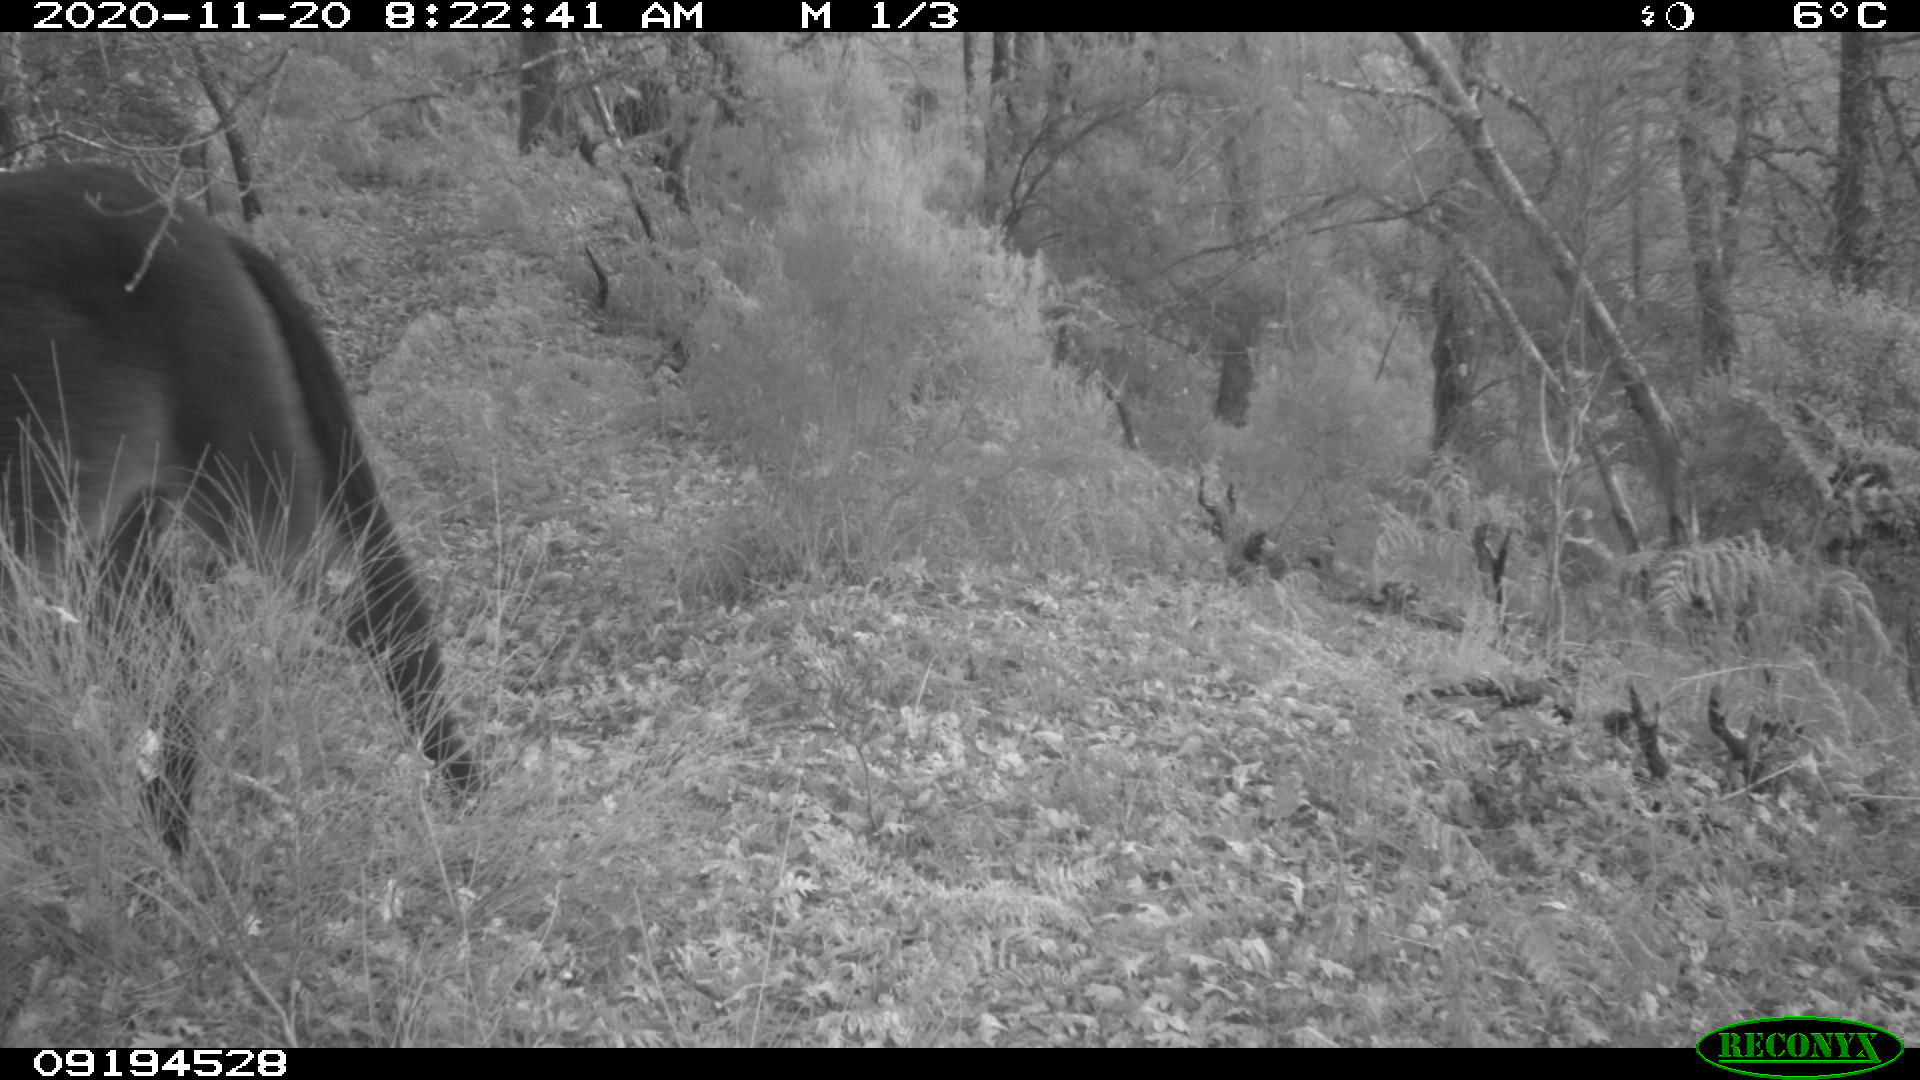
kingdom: Animalia
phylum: Chordata
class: Mammalia
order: Perissodactyla
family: Equidae
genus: Equus
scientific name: Equus caballus
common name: Horse
